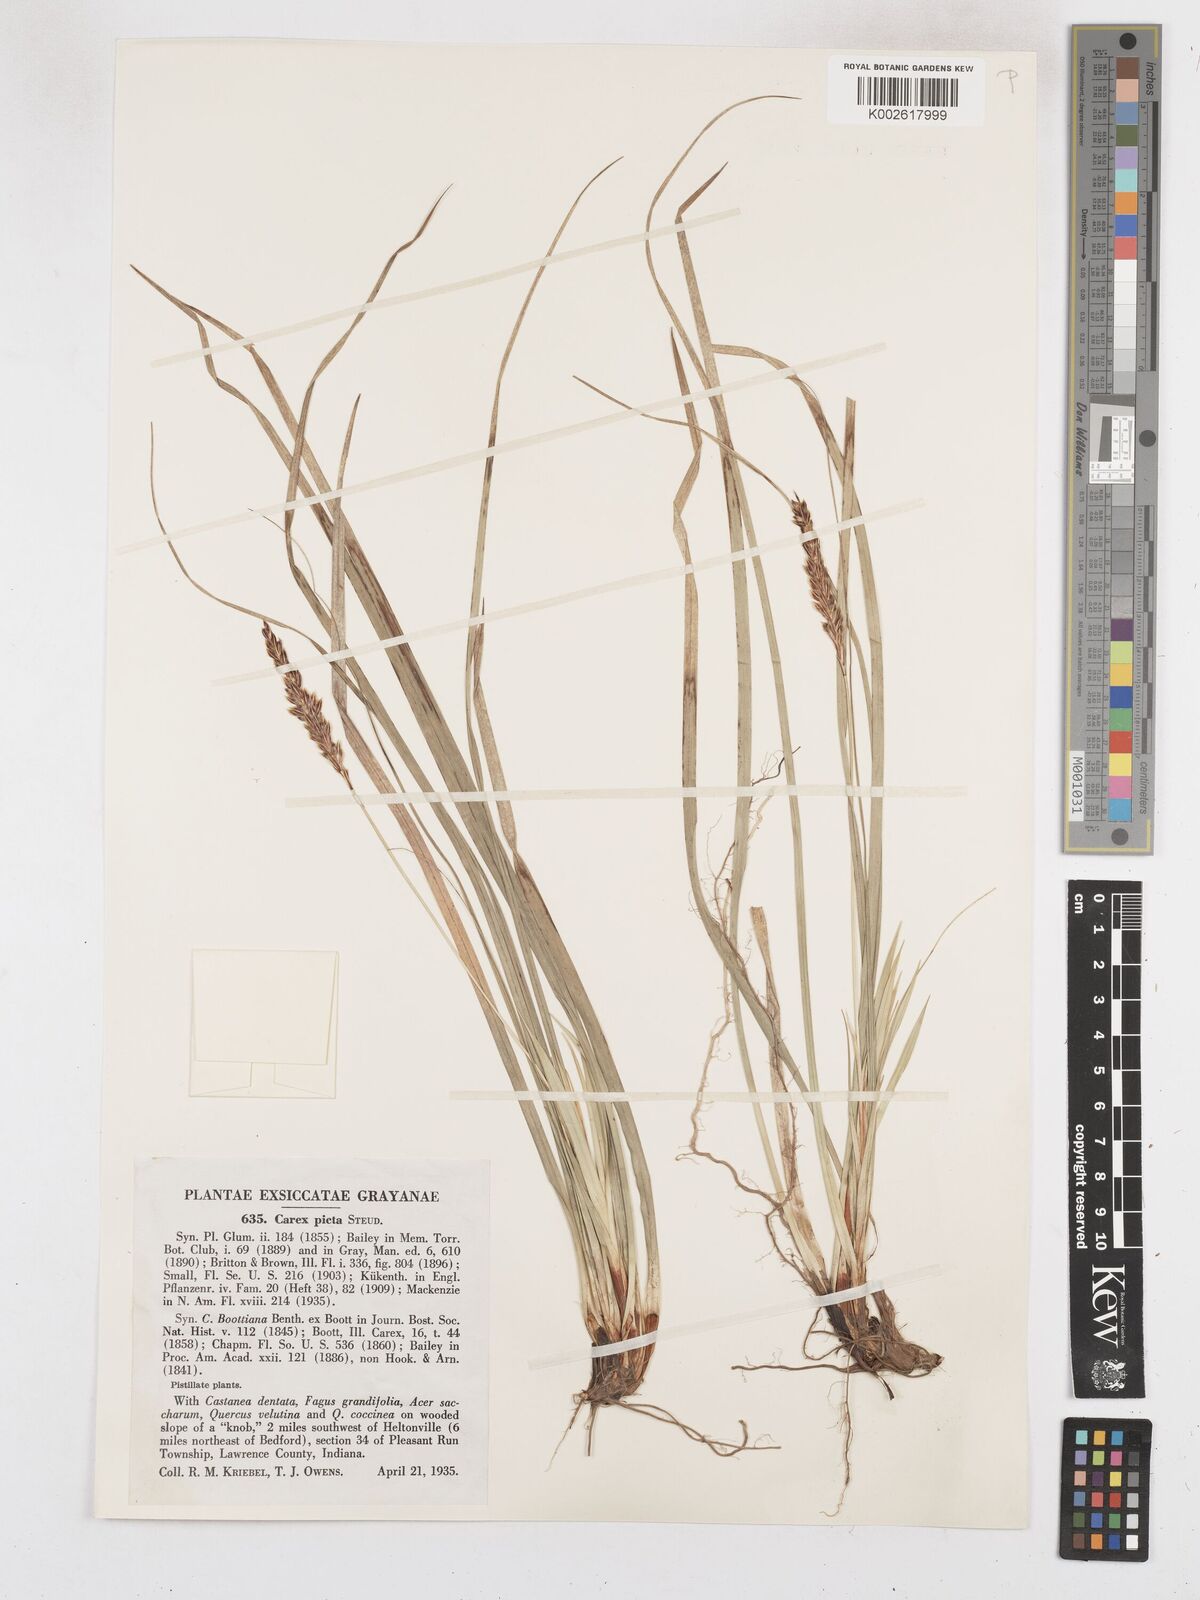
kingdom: Plantae
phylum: Tracheophyta
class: Liliopsida
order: Poales
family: Cyperaceae
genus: Carex
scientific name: Carex picta
